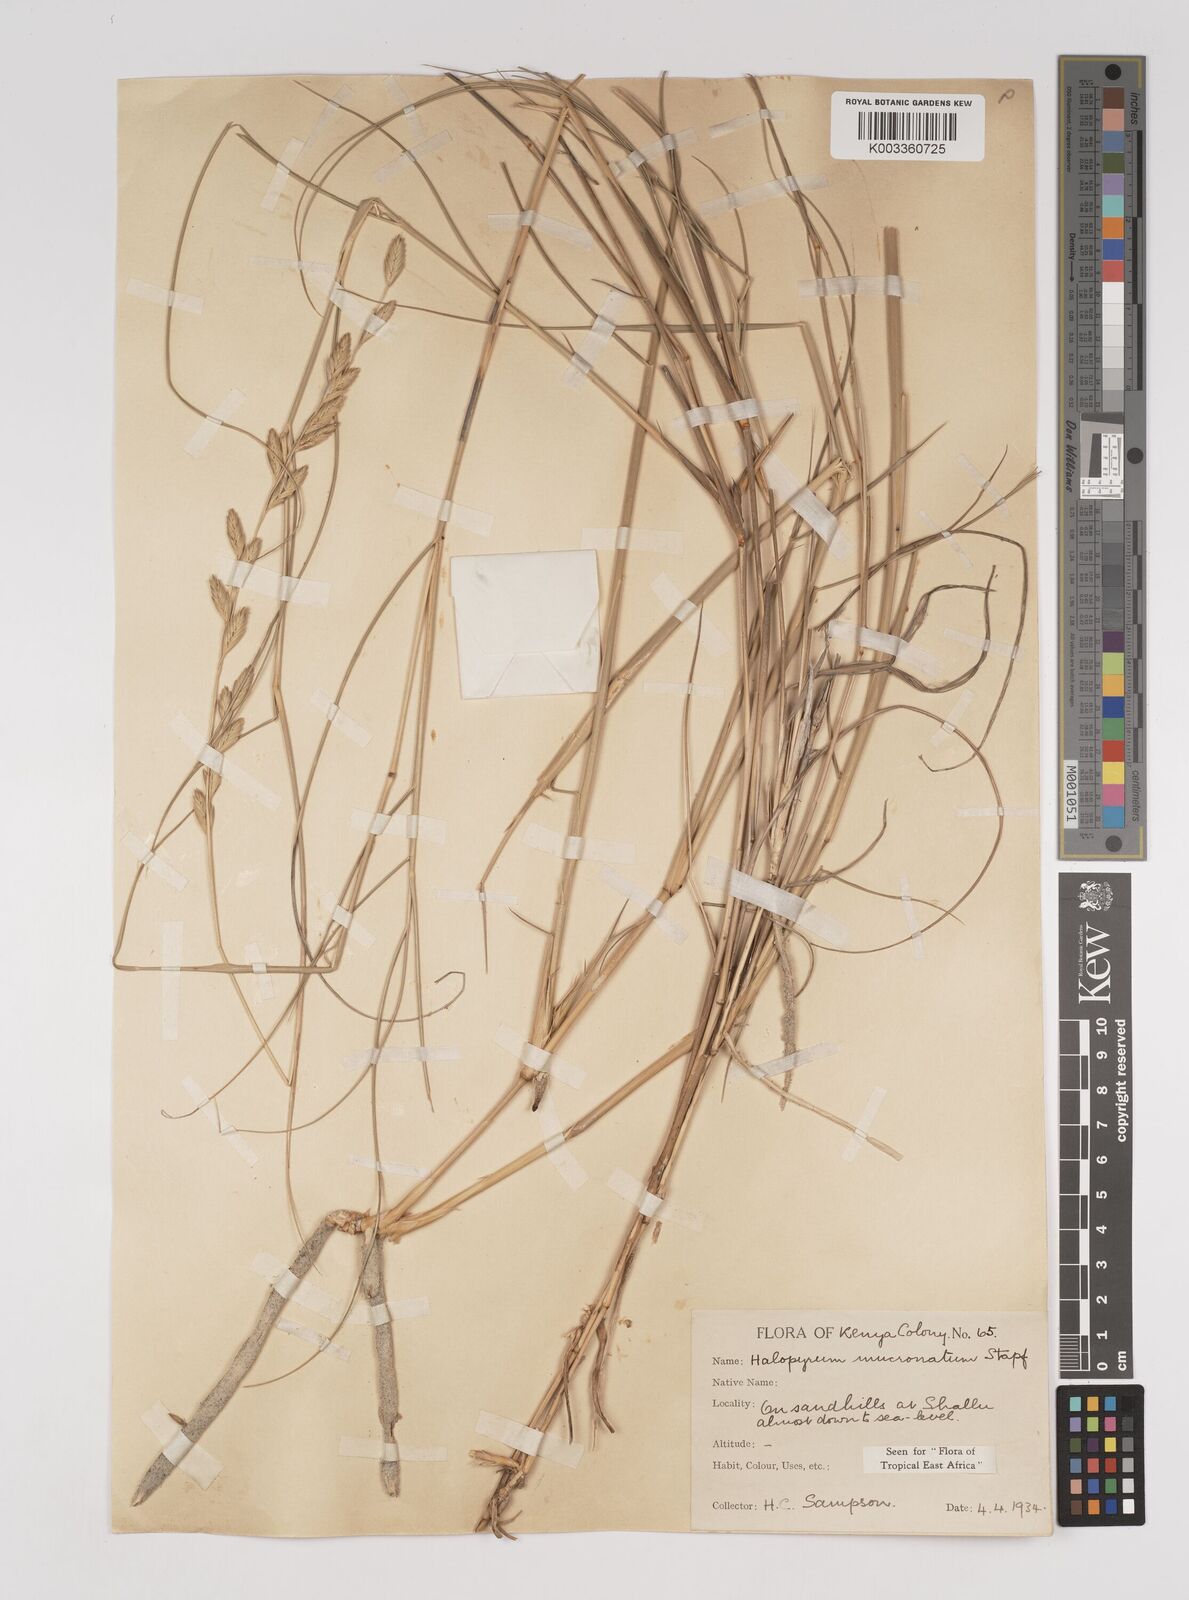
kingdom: Plantae
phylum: Tracheophyta
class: Liliopsida
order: Poales
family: Poaceae
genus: Halopyrum
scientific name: Halopyrum mucronatum
